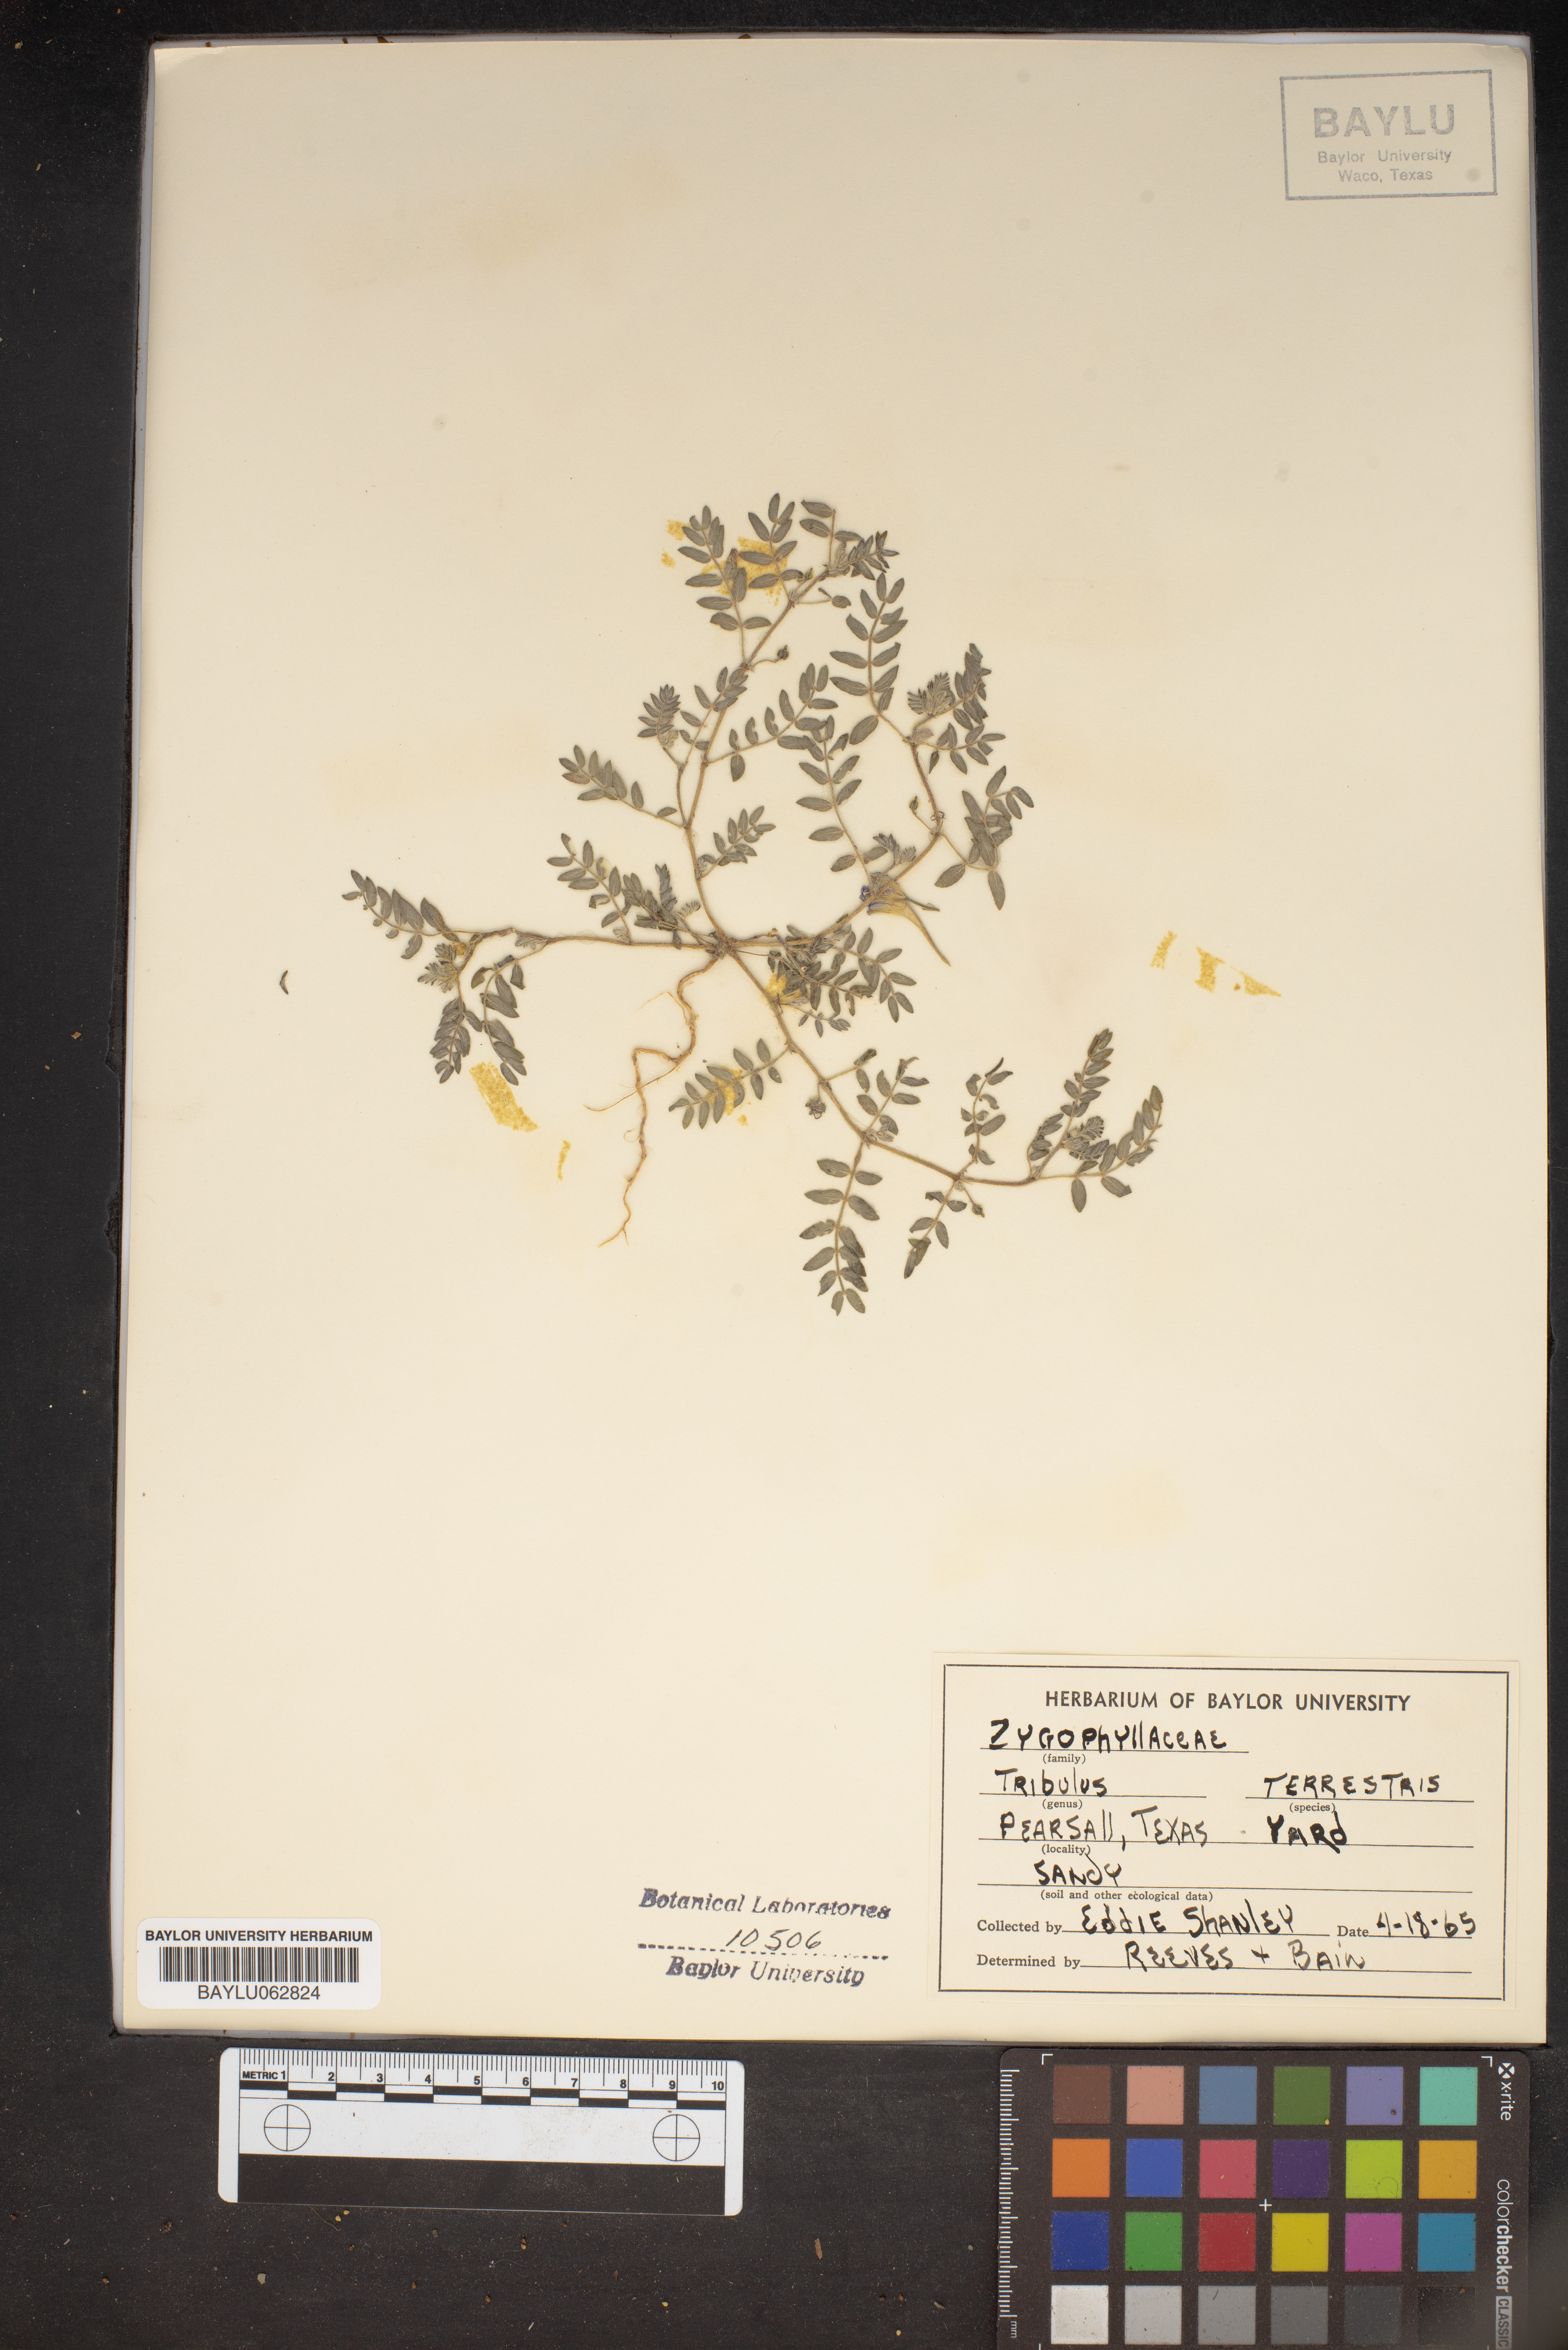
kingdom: Plantae
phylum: Tracheophyta
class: Magnoliopsida
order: Zygophyllales
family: Zygophyllaceae
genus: Tribulus
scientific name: Tribulus terrestris
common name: Puncturevine
